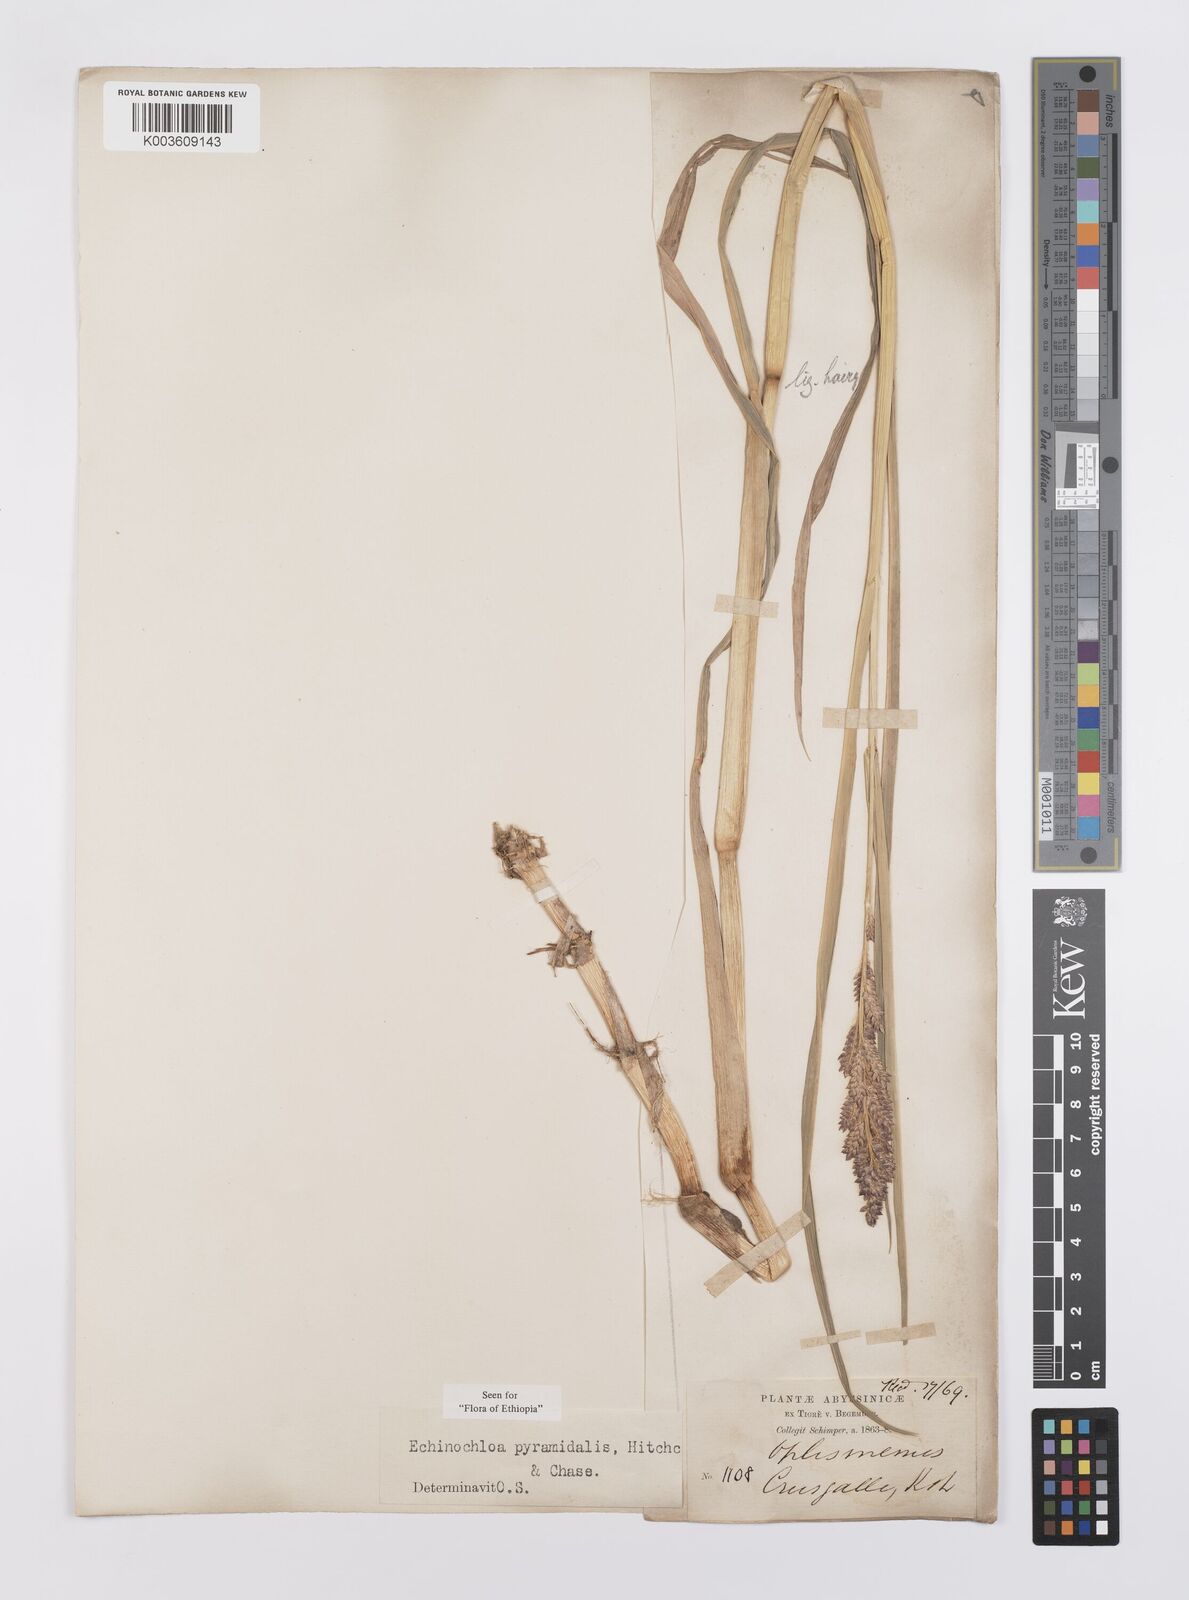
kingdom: Plantae
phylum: Tracheophyta
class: Liliopsida
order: Poales
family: Poaceae
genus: Echinochloa
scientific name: Echinochloa pyramidalis
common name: Antelope grass
